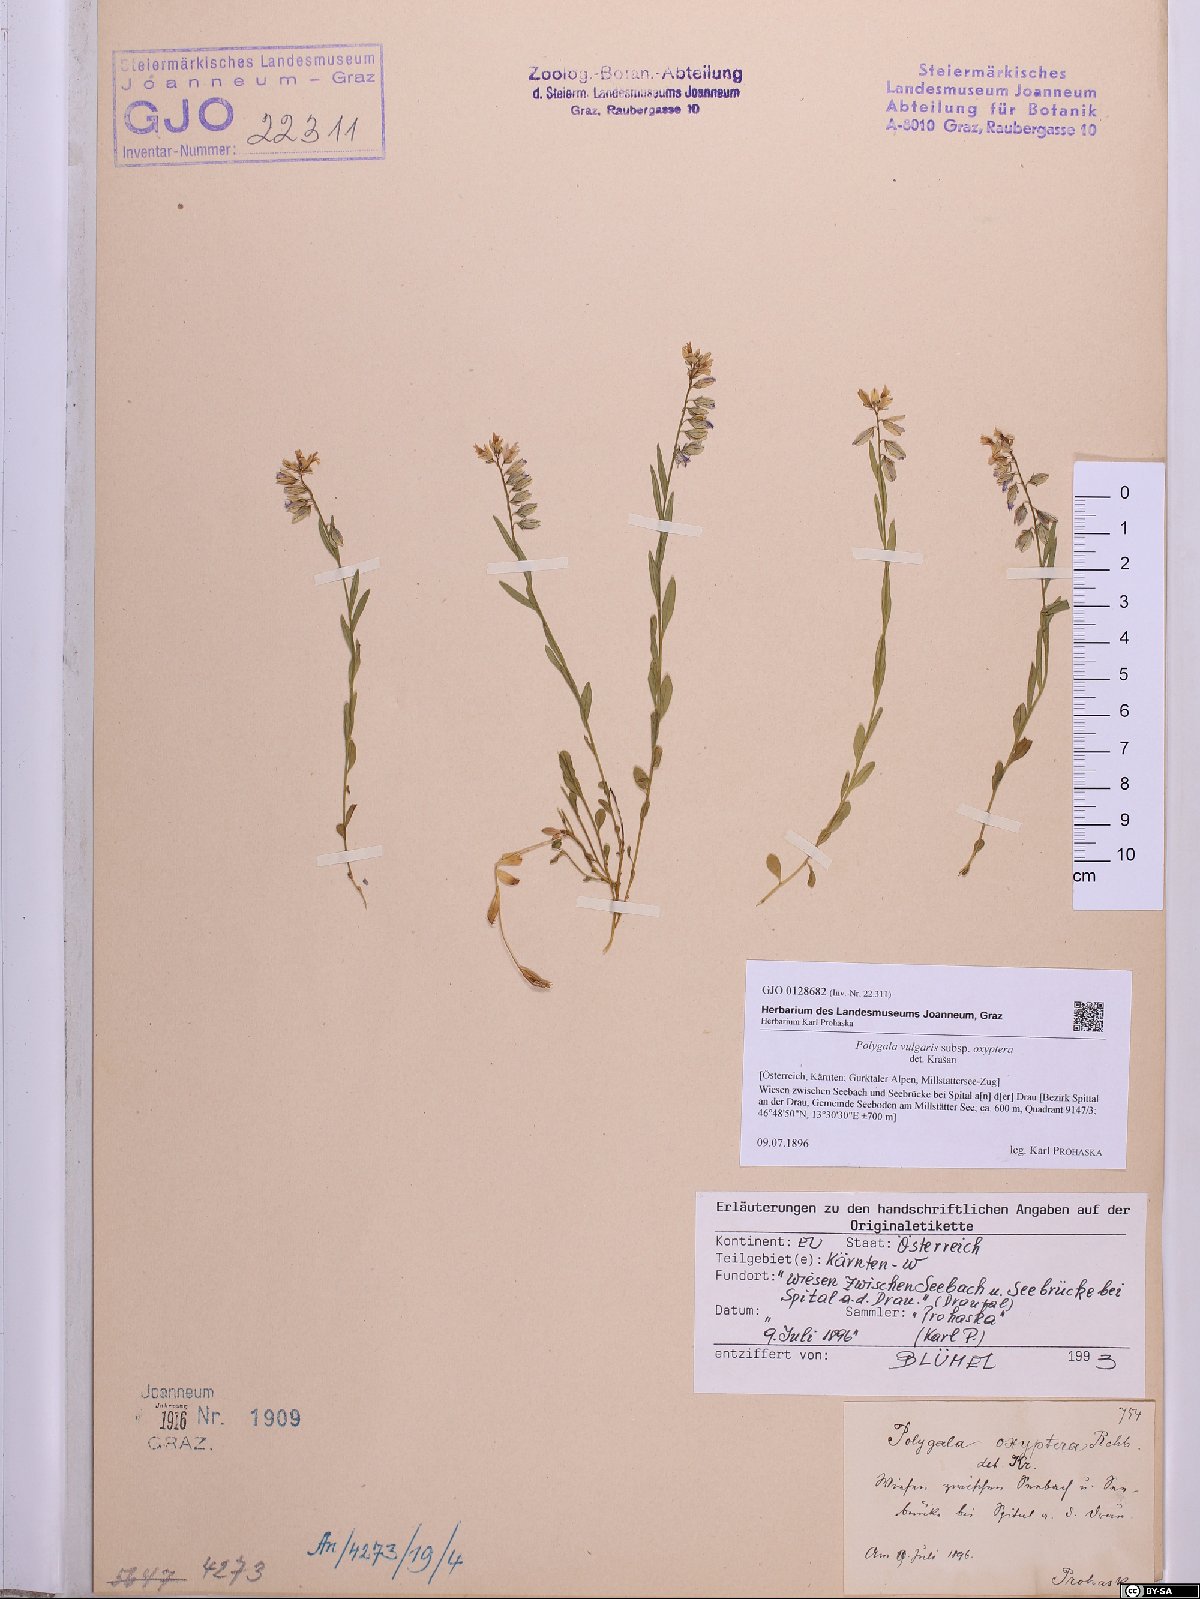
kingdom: Plantae
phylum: Tracheophyta
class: Magnoliopsida
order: Fabales
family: Polygalaceae
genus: Polygala
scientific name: Polygala vulgaris
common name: Common milkwort
